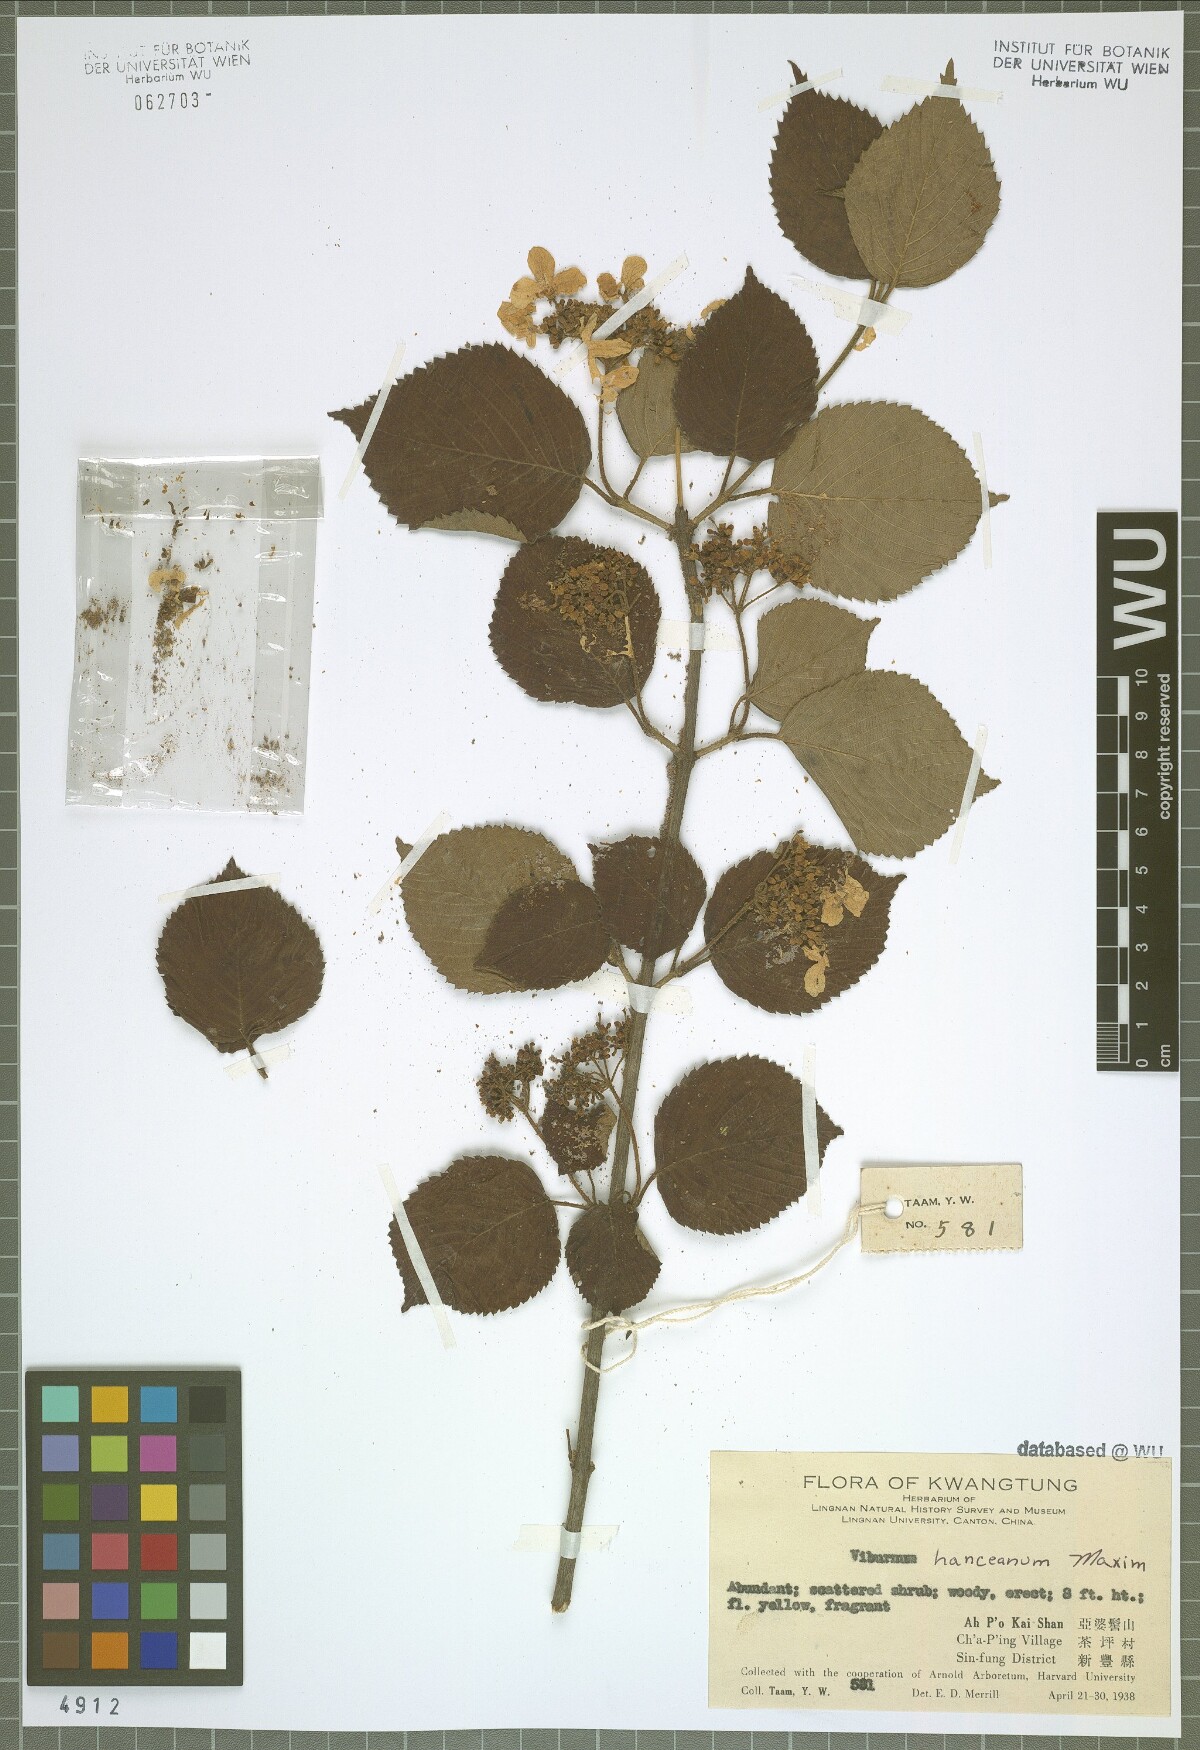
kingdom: Plantae
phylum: Tracheophyta
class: Magnoliopsida
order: Dipsacales
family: Viburnaceae
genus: Viburnum
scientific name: Viburnum hanceanum
